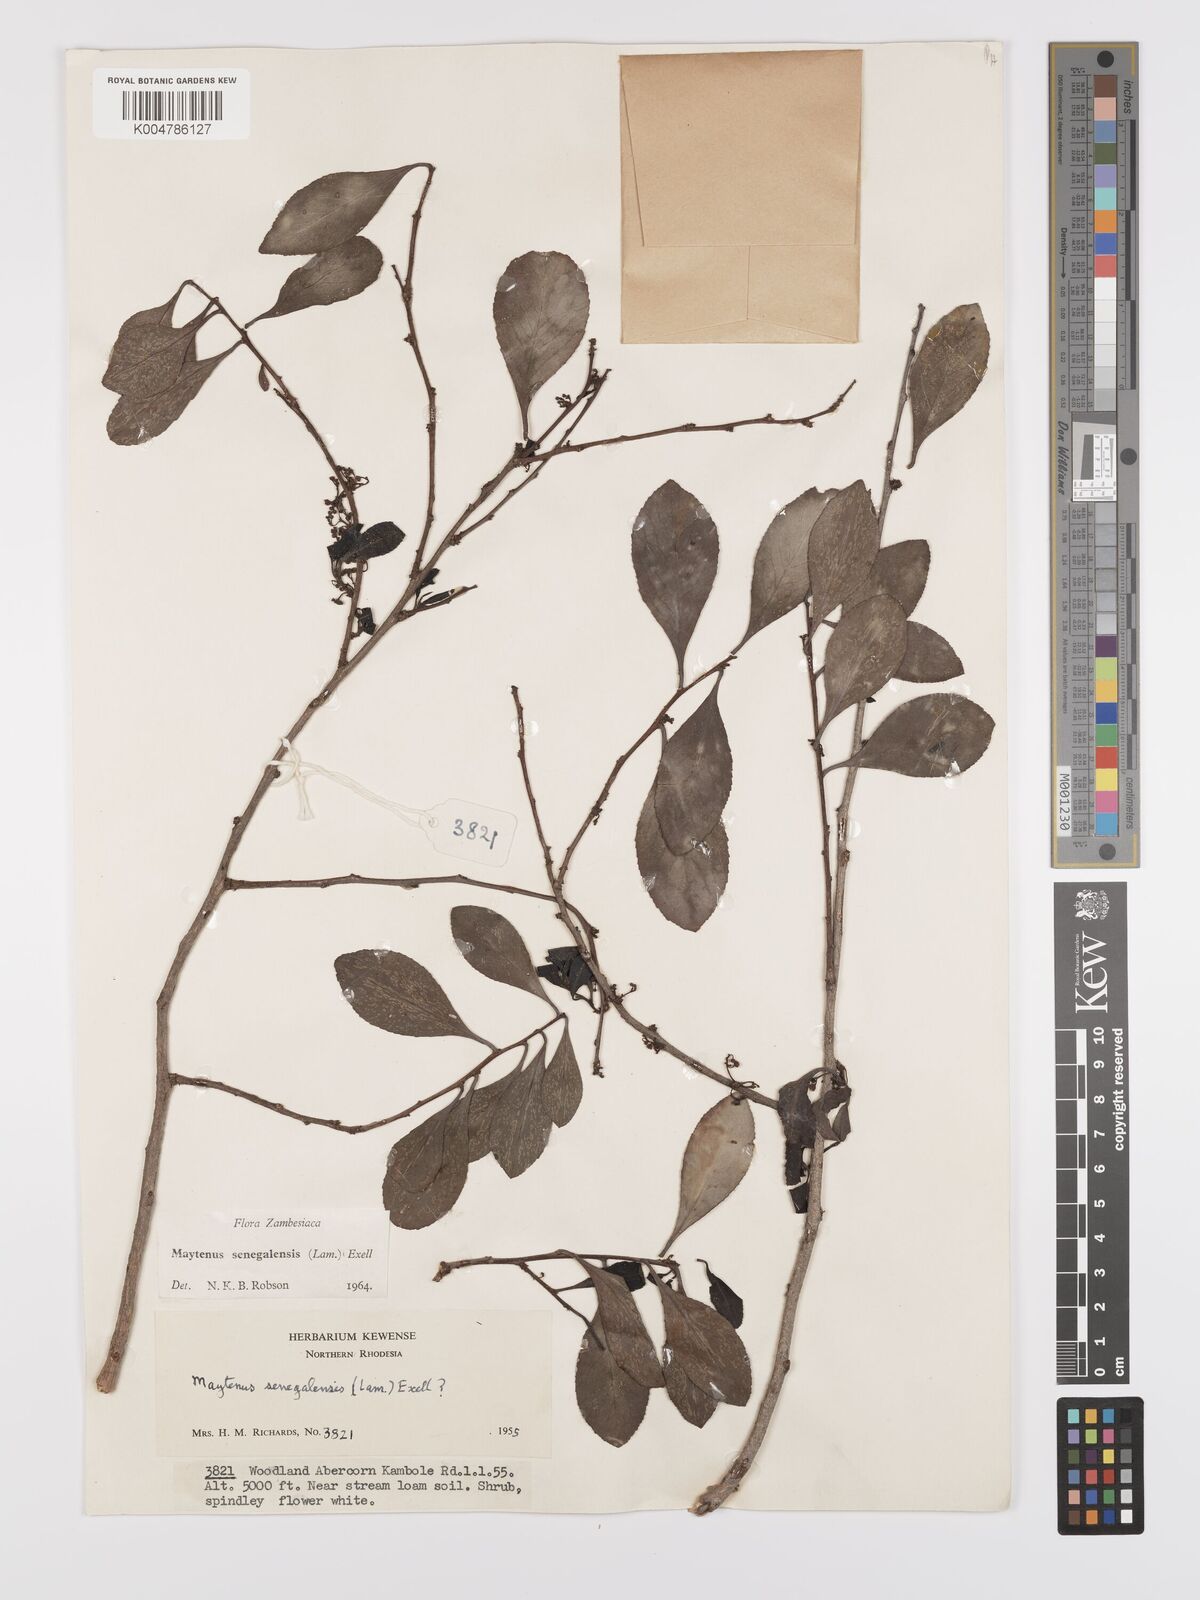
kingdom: Plantae
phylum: Tracheophyta
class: Magnoliopsida
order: Celastrales
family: Celastraceae
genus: Gymnosporia
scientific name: Gymnosporia senegalensis
